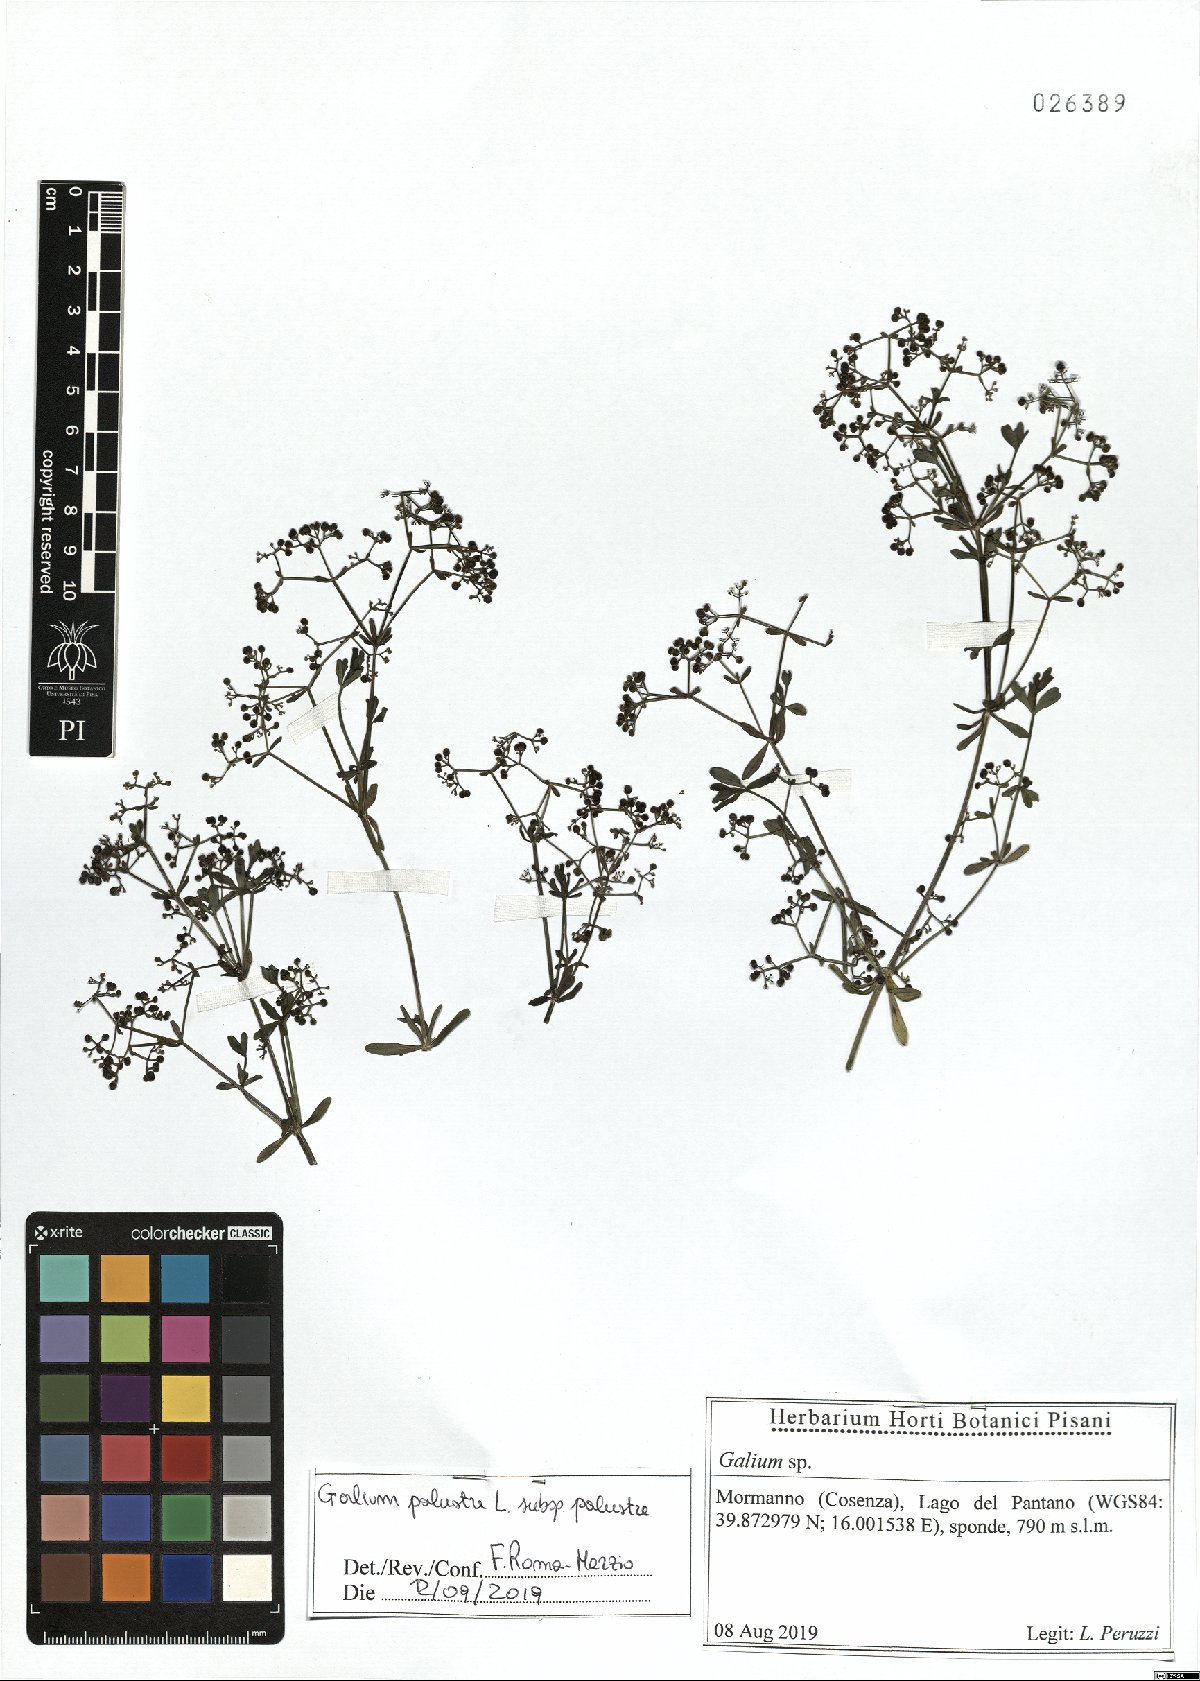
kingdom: Plantae
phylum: Tracheophyta
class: Magnoliopsida
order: Gentianales
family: Rubiaceae
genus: Galium
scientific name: Galium palustre
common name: Common marsh-bedstraw
